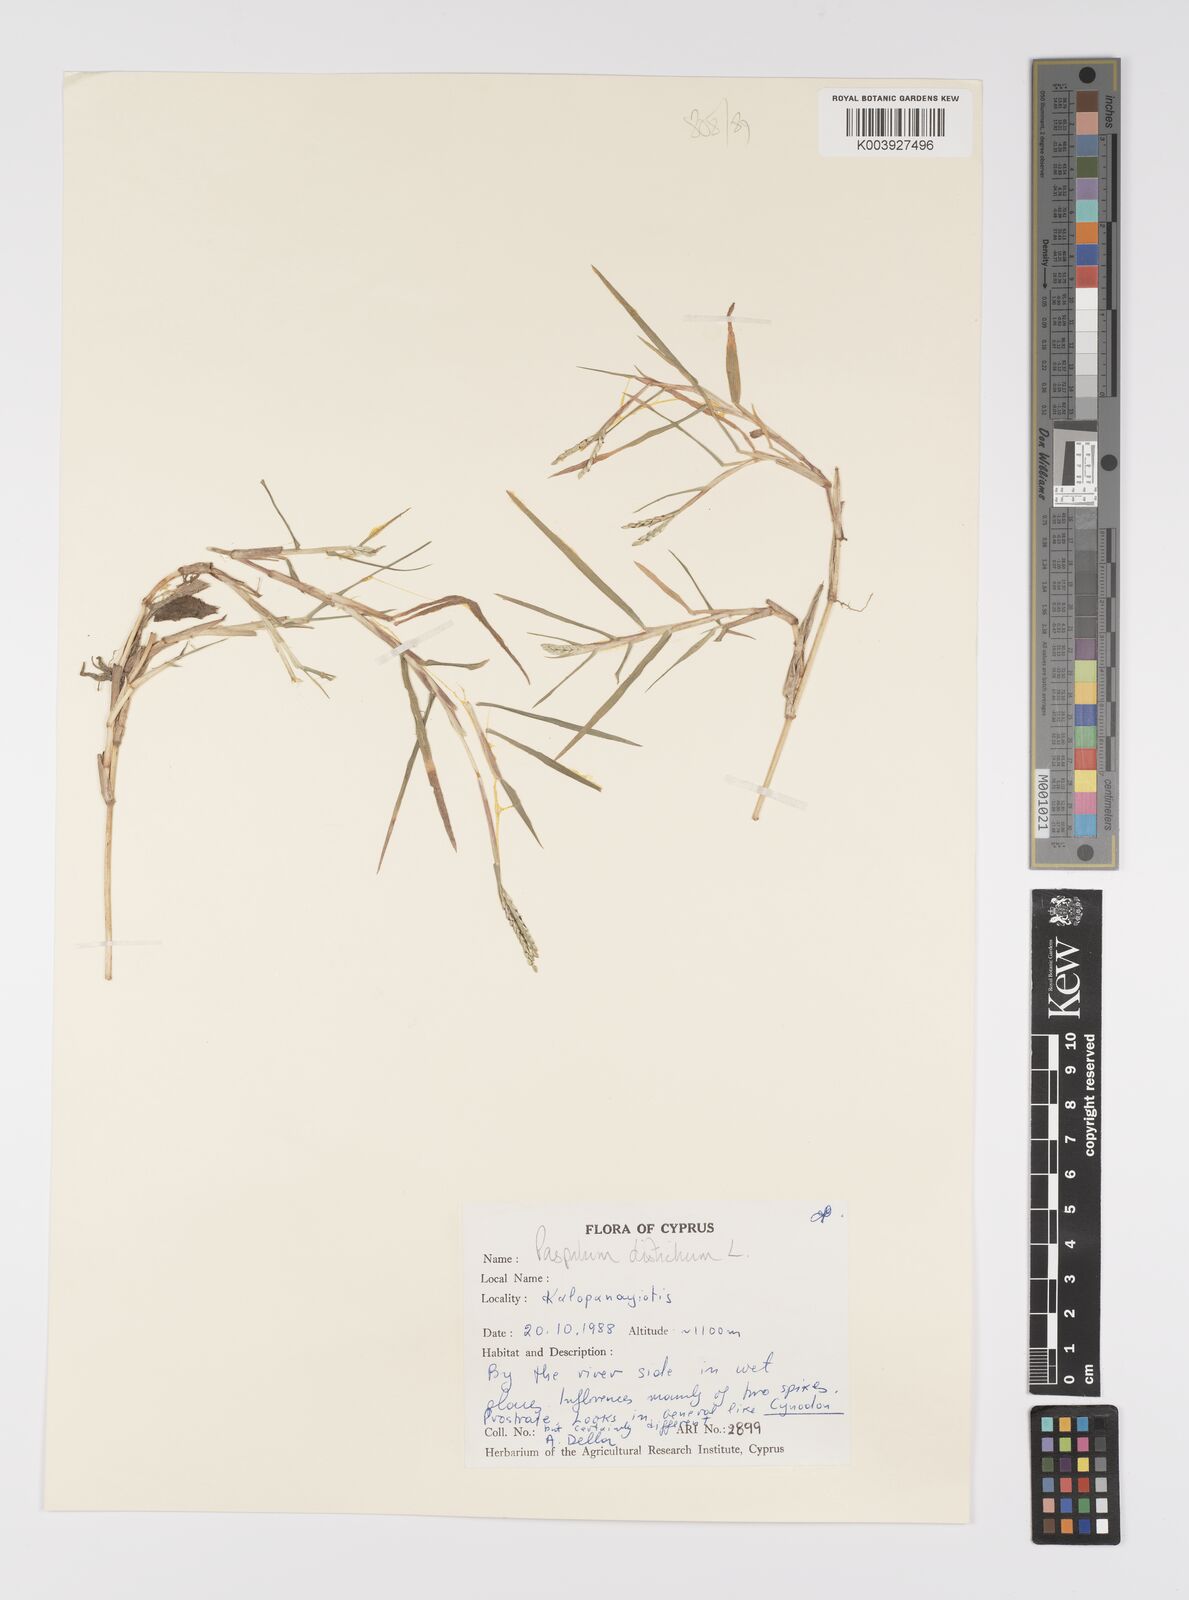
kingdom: Plantae
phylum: Tracheophyta
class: Liliopsida
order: Poales
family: Poaceae
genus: Paspalum
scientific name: Paspalum distichum
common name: Knotgrass
